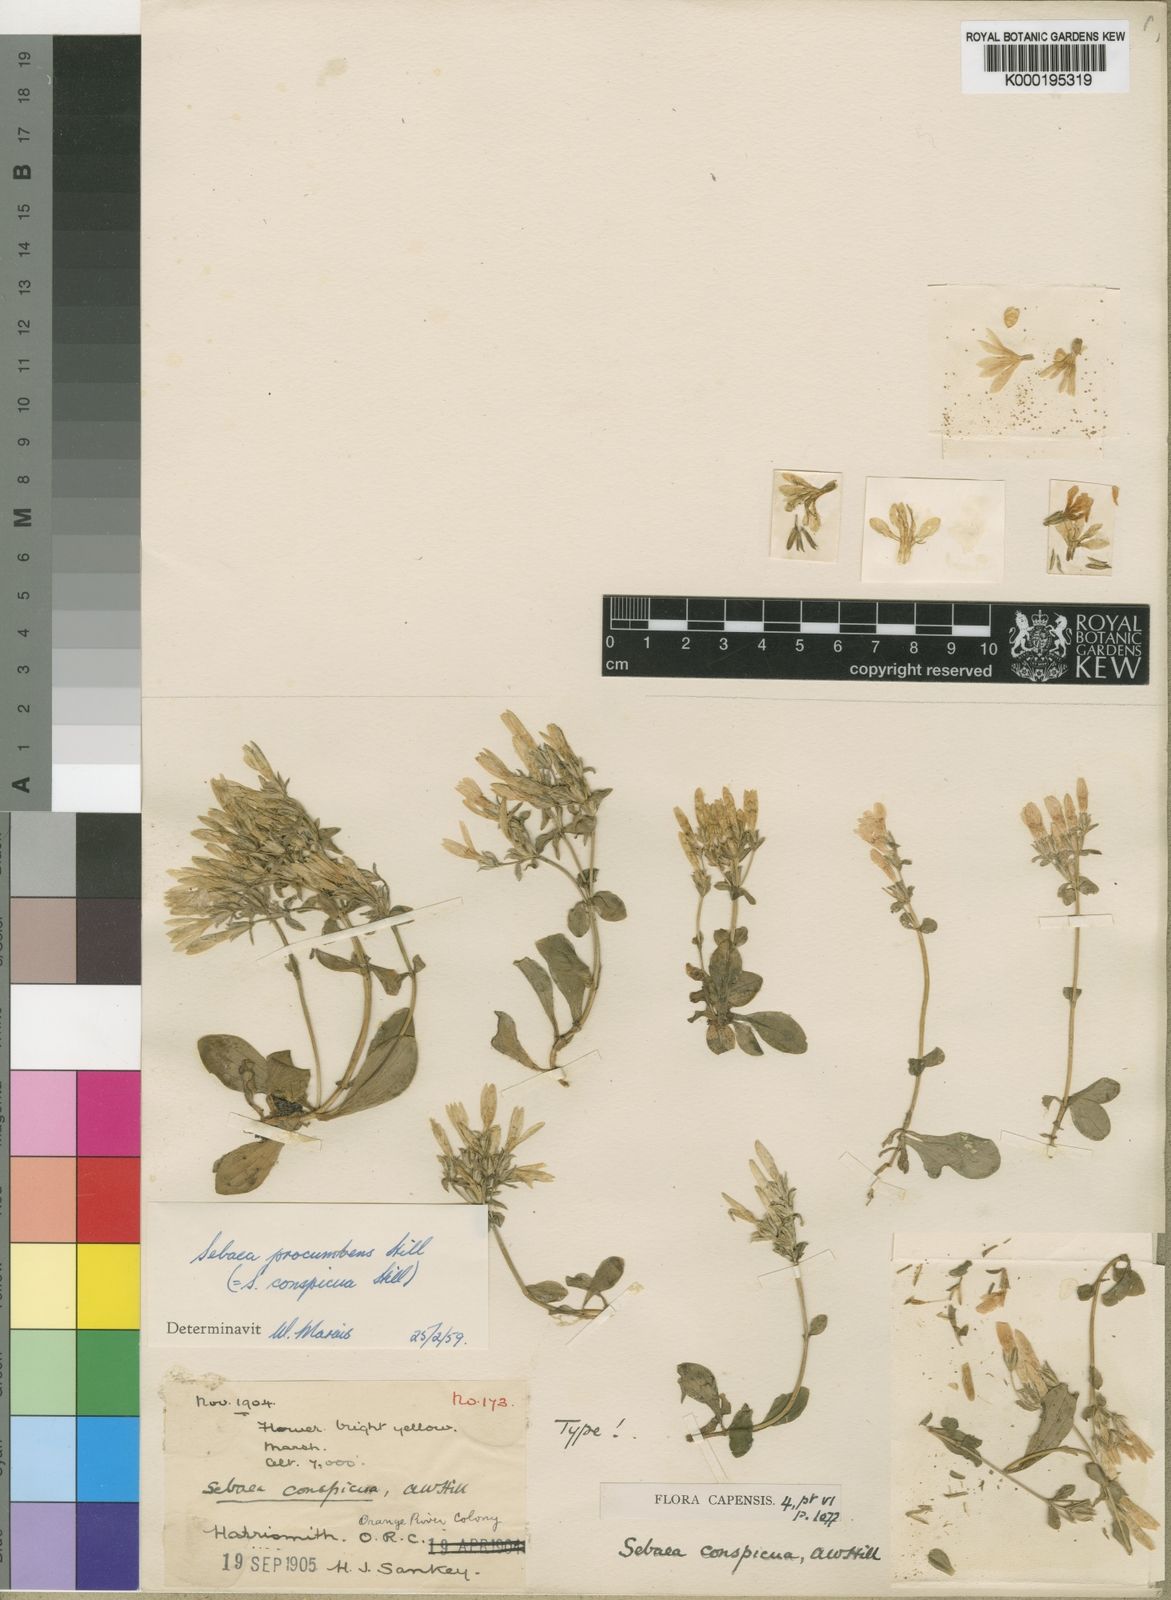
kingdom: Plantae
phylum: Tracheophyta
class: Magnoliopsida
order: Gentianales
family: Gentianaceae
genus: Sebaea
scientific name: Sebaea procumbens
